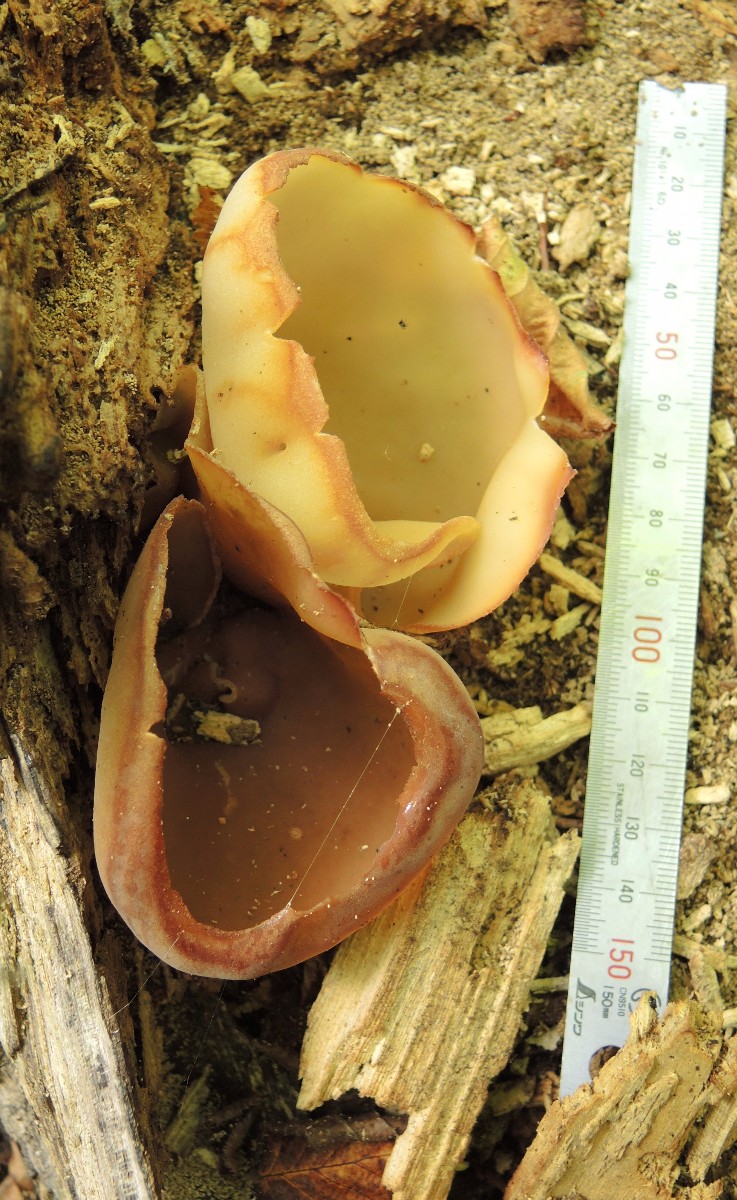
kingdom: Fungi
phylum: Ascomycota
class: Pezizomycetes
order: Pezizales
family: Pezizaceae
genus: Peziza
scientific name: Peziza repanda
